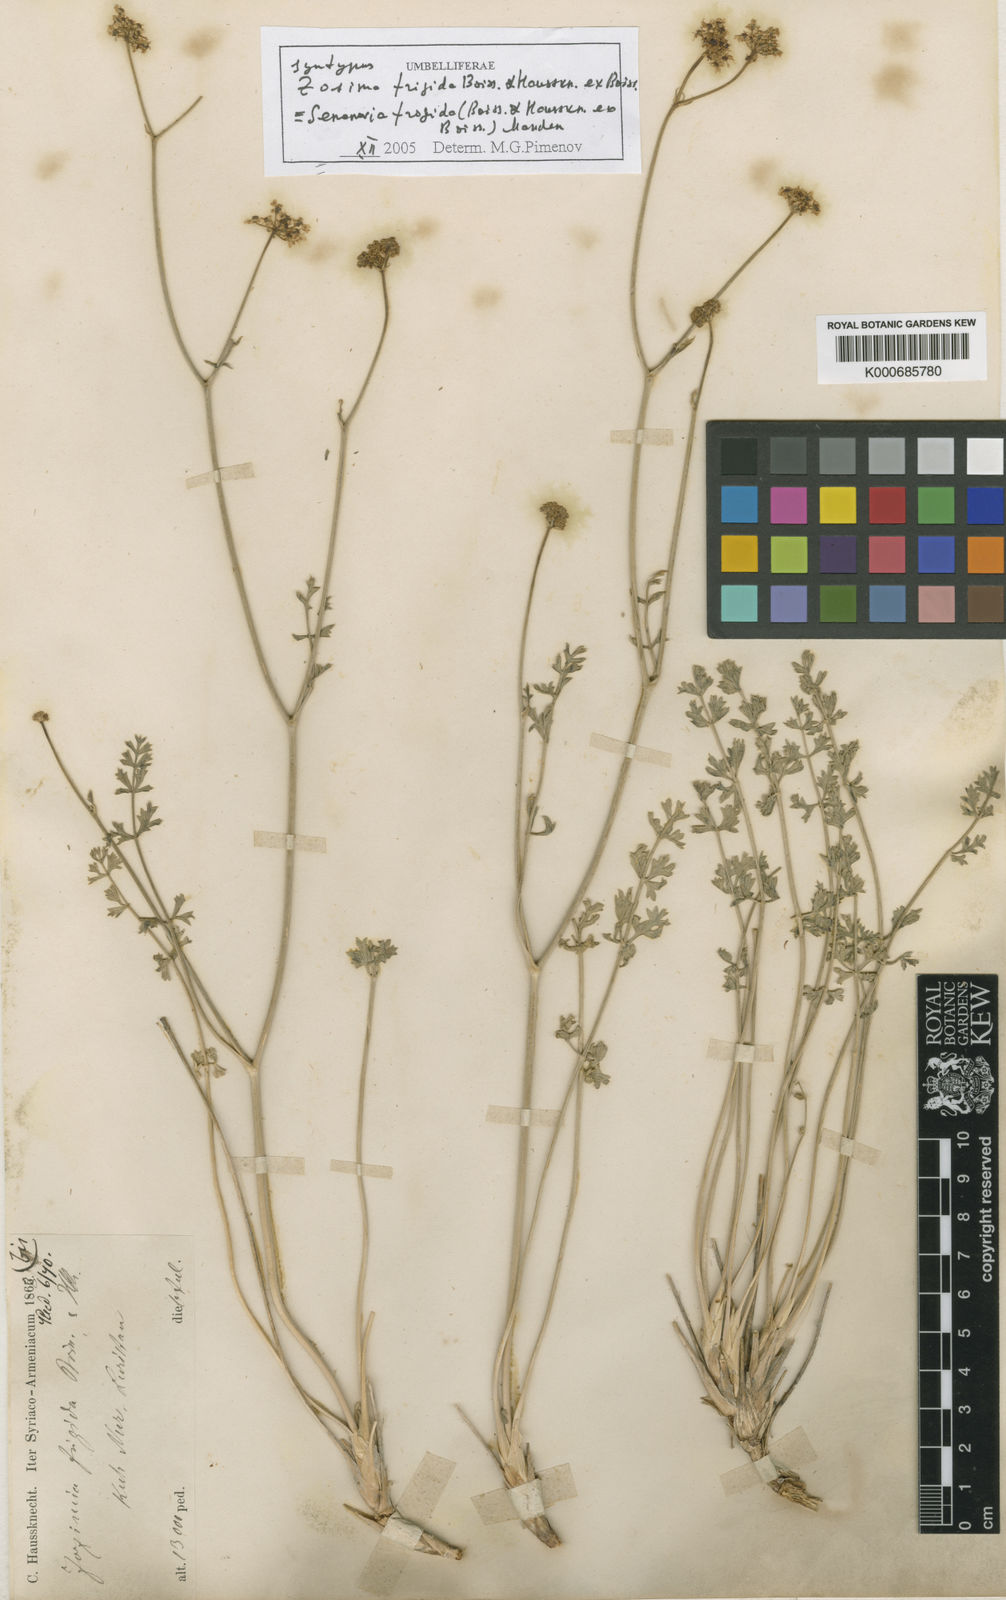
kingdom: Plantae
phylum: Tracheophyta
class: Magnoliopsida
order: Apiales
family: Apiaceae
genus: Semenovia
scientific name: Semenovia frigida
